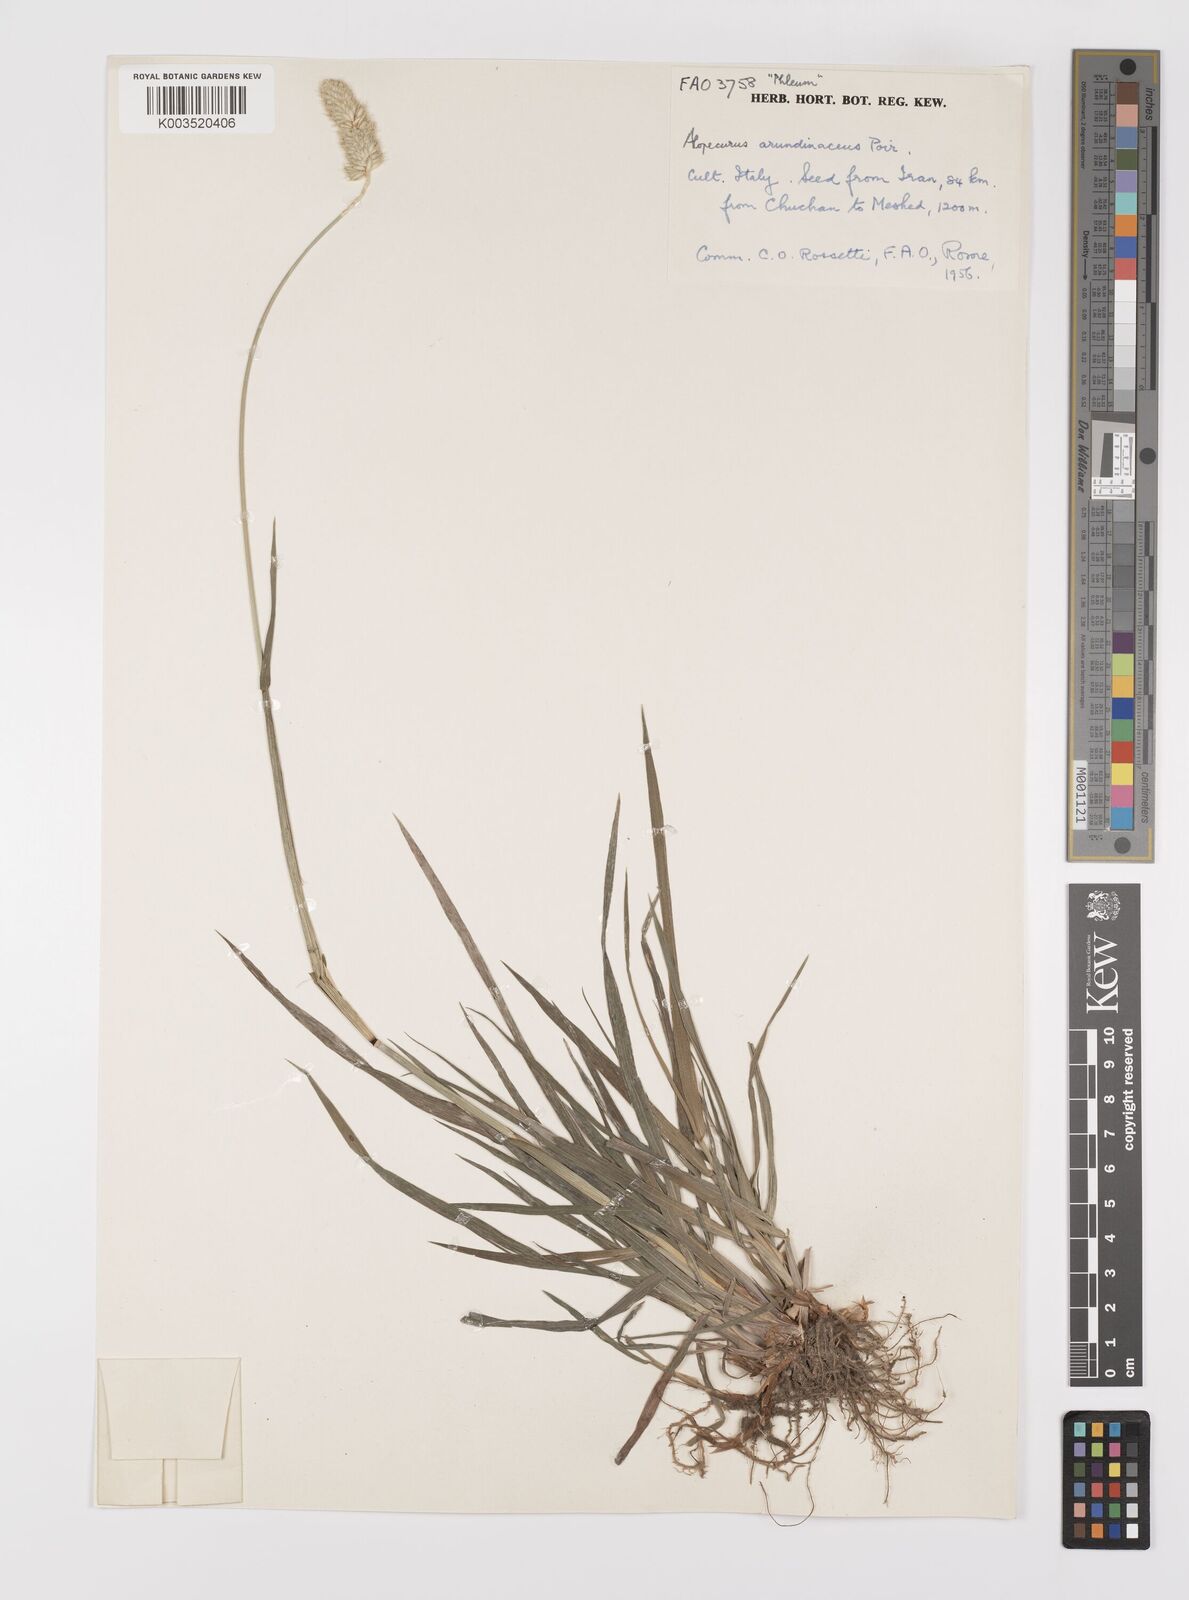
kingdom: Plantae
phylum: Tracheophyta
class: Liliopsida
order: Poales
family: Poaceae
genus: Alopecurus
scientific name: Alopecurus arundinaceus
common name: Creeping meadow foxtail
